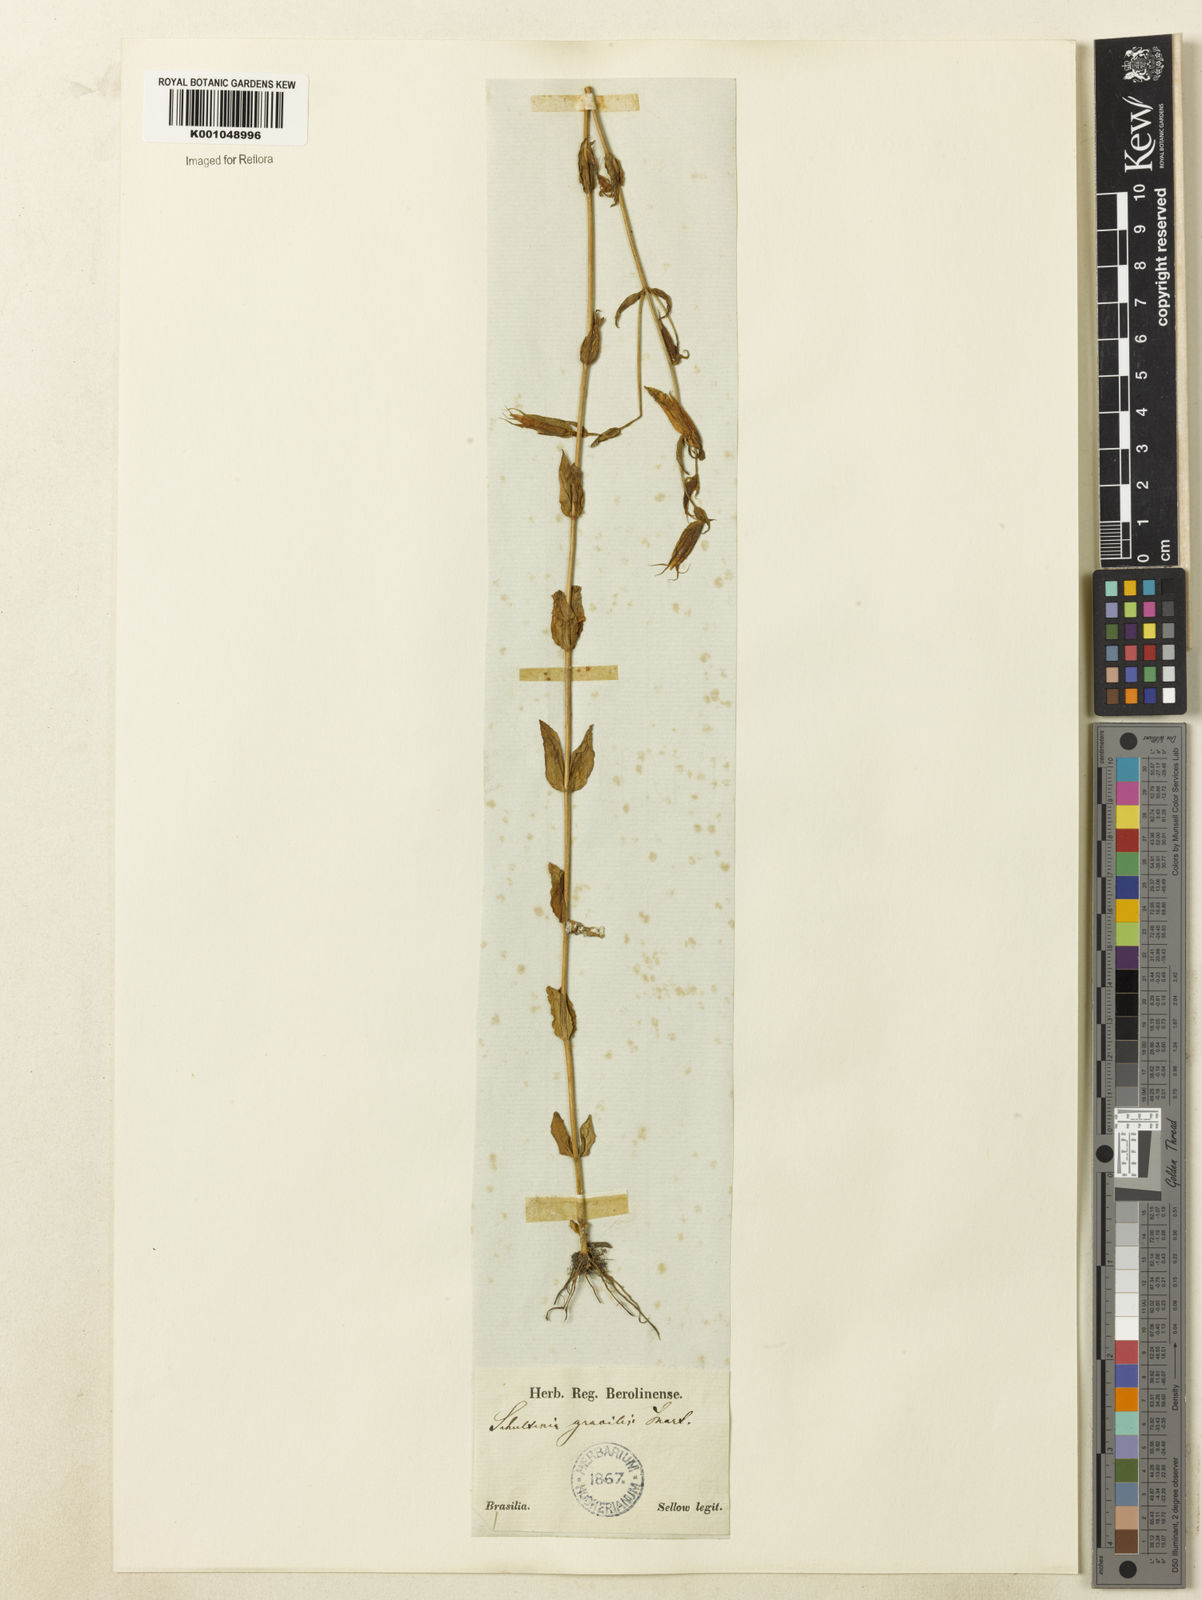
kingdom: Plantae
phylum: Tracheophyta
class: Magnoliopsida
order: Gentianales
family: Gentianaceae
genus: Schultesia
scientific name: Schultesia australis
